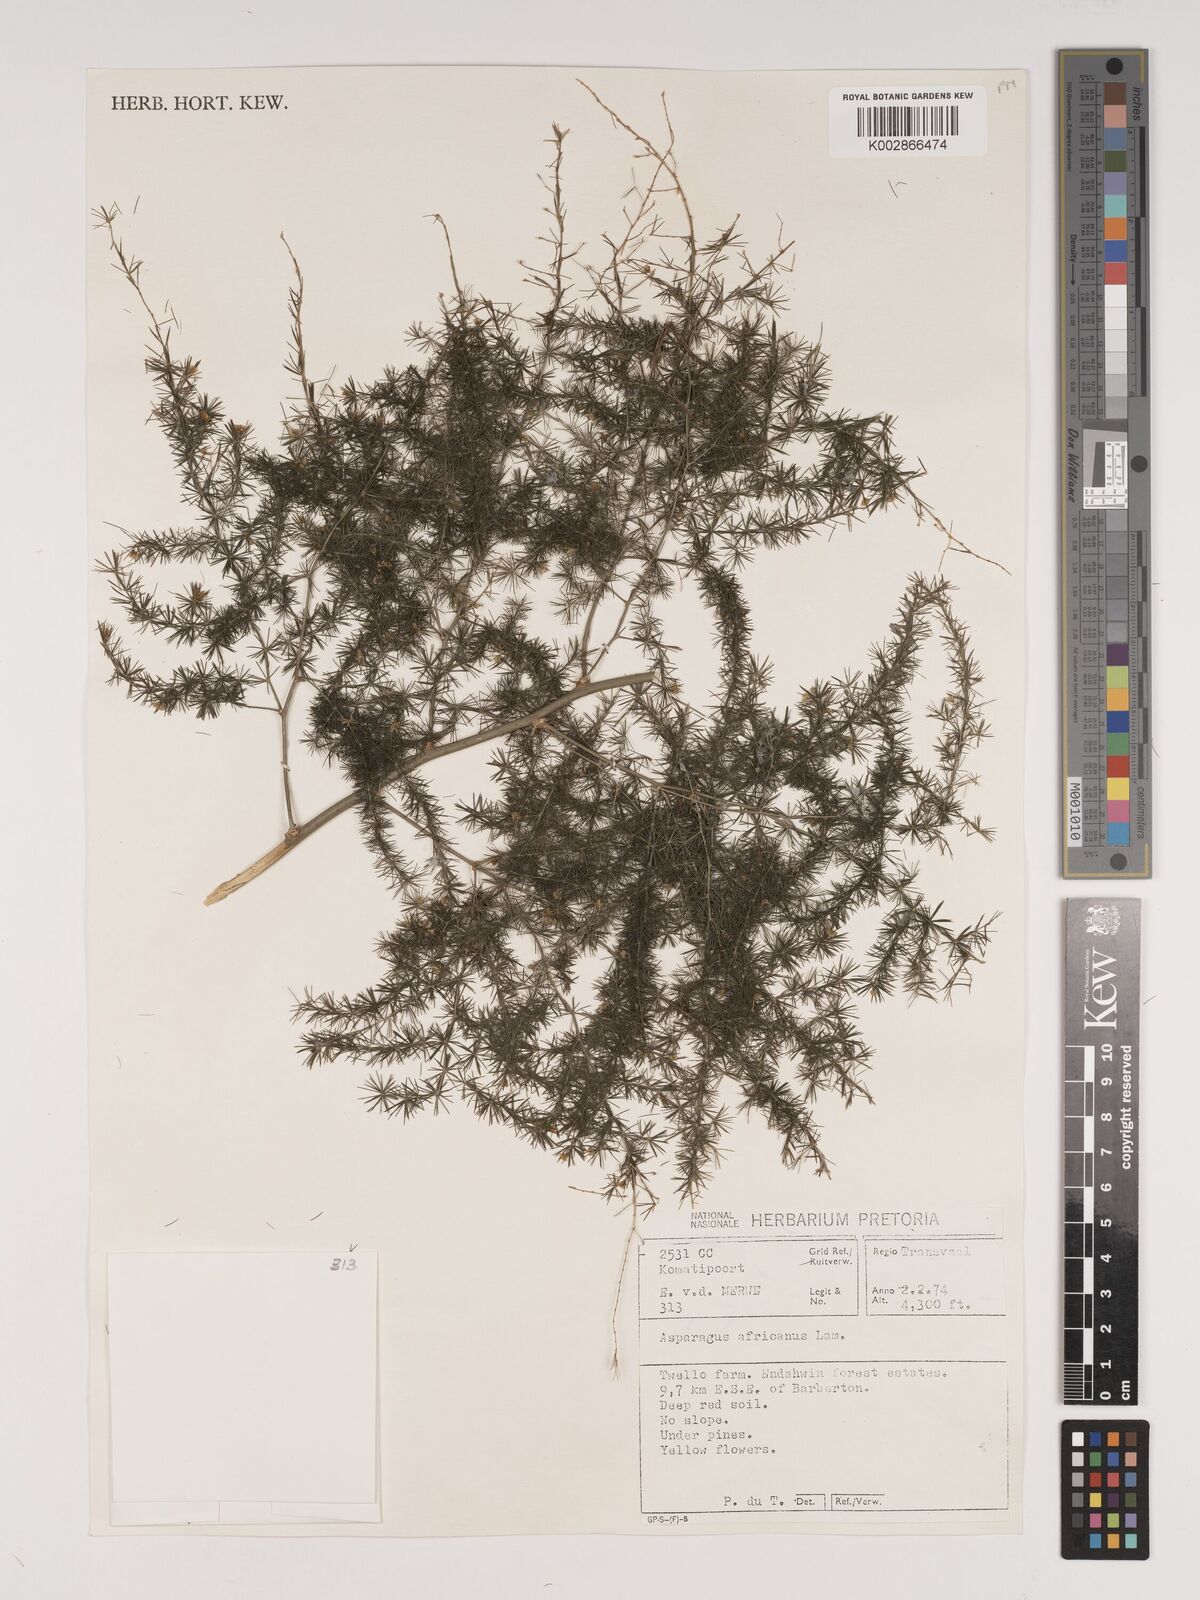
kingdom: Plantae
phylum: Tracheophyta
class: Liliopsida
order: Asparagales
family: Asparagaceae
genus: Asparagus
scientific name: Asparagus africanus
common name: Asparagus-fern
